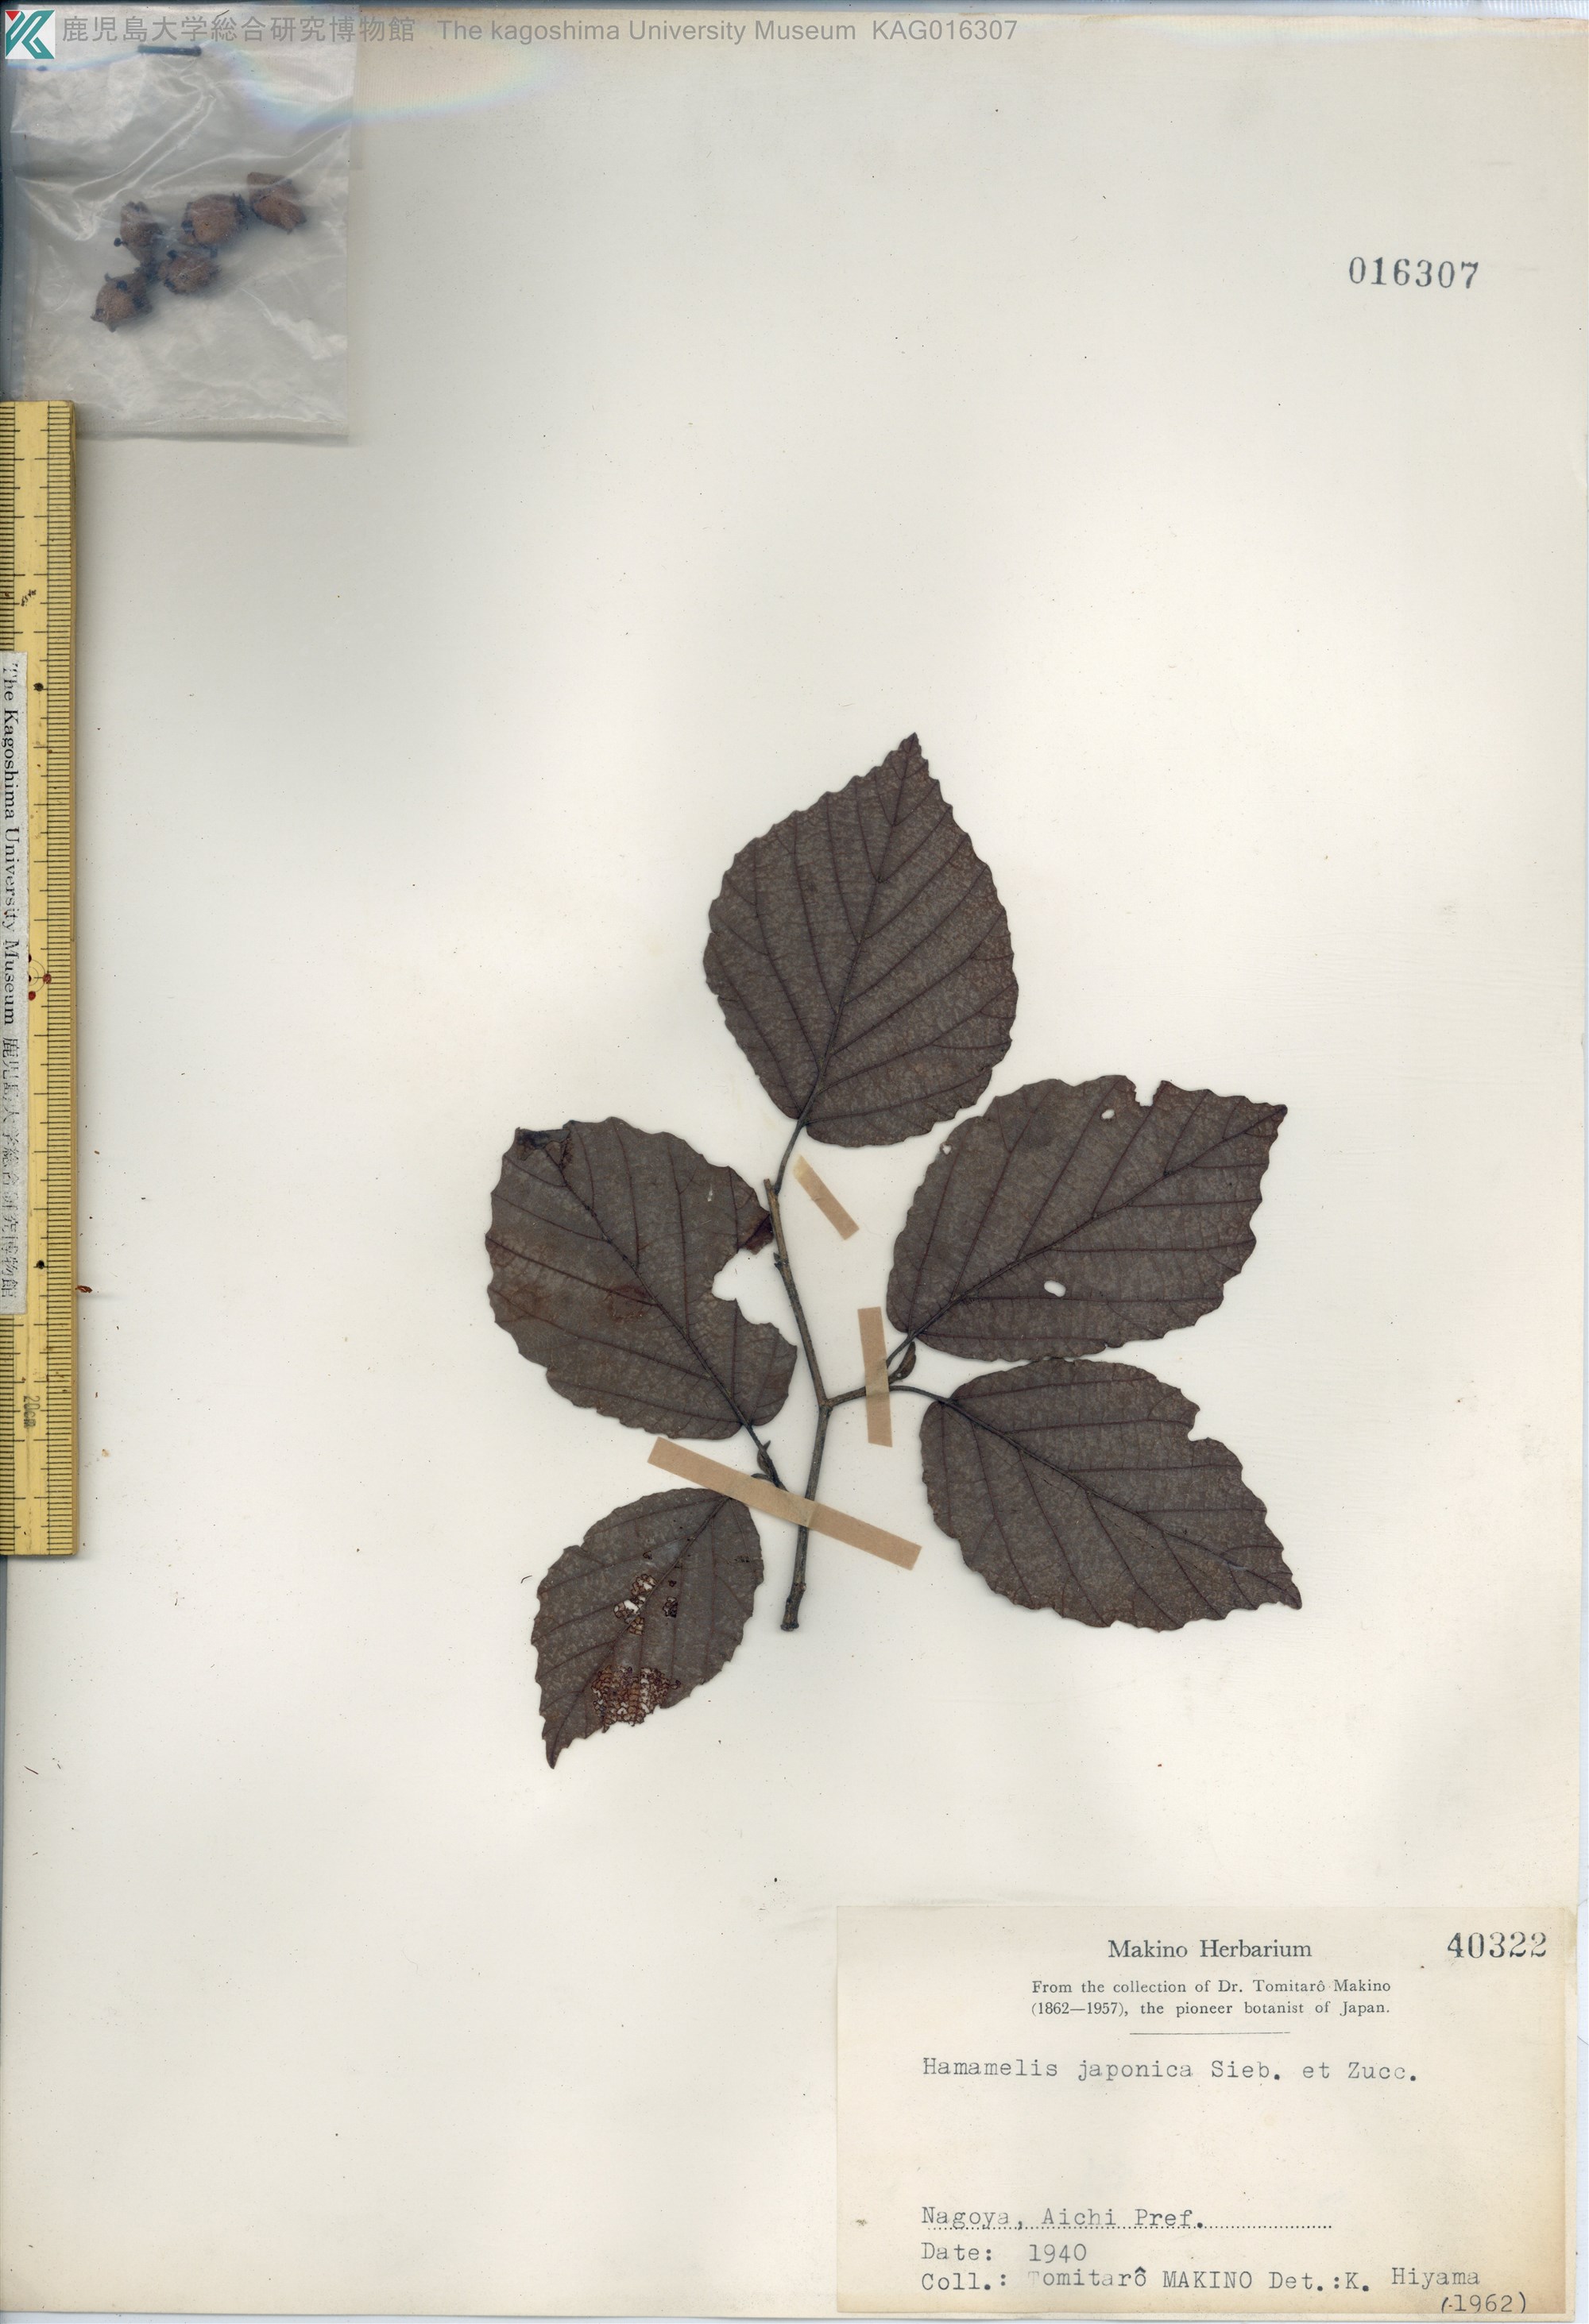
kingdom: Plantae
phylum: Tracheophyta
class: Magnoliopsida
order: Saxifragales
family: Hamamelidaceae
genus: Hamamelis
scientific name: Hamamelis japonica
